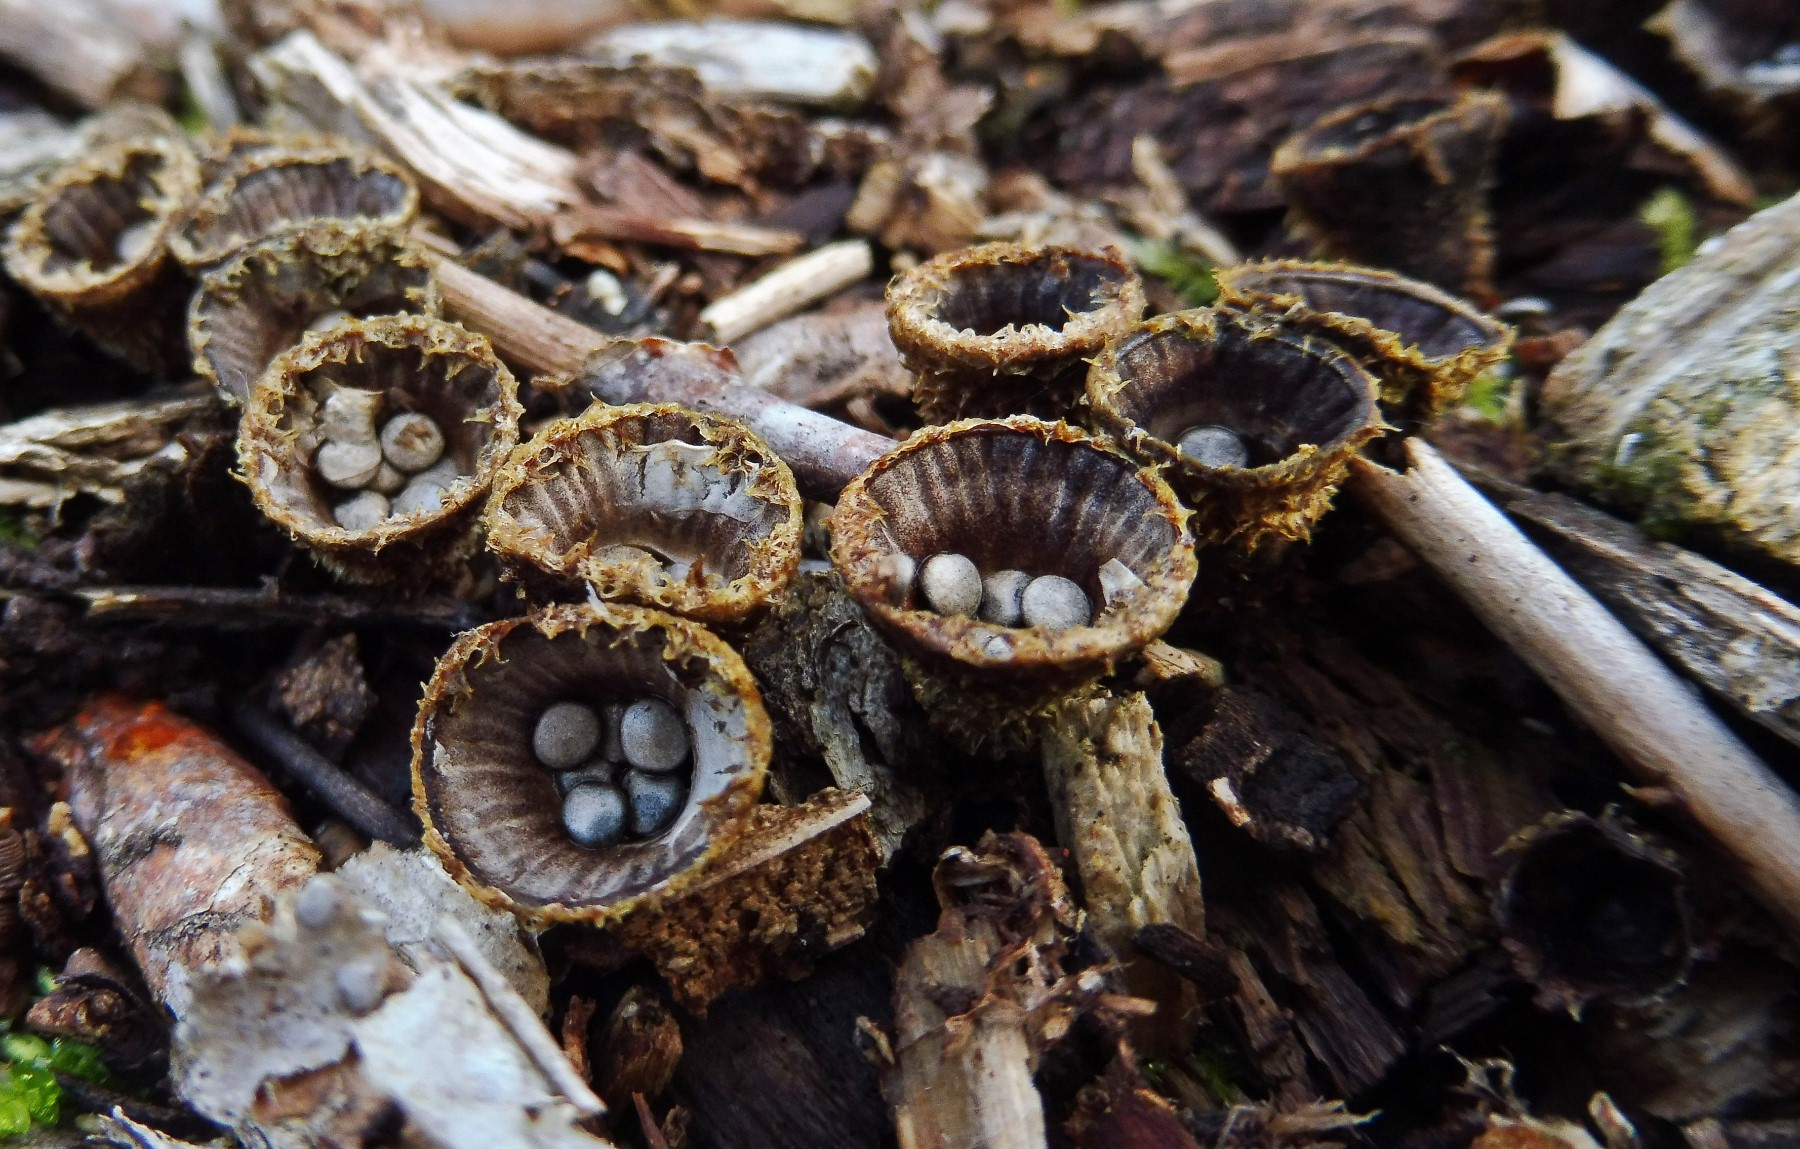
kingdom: Fungi
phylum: Basidiomycota
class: Agaricomycetes
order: Agaricales
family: Agaricaceae
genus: Cyathus
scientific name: Cyathus striatus
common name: stribet redesvamp
